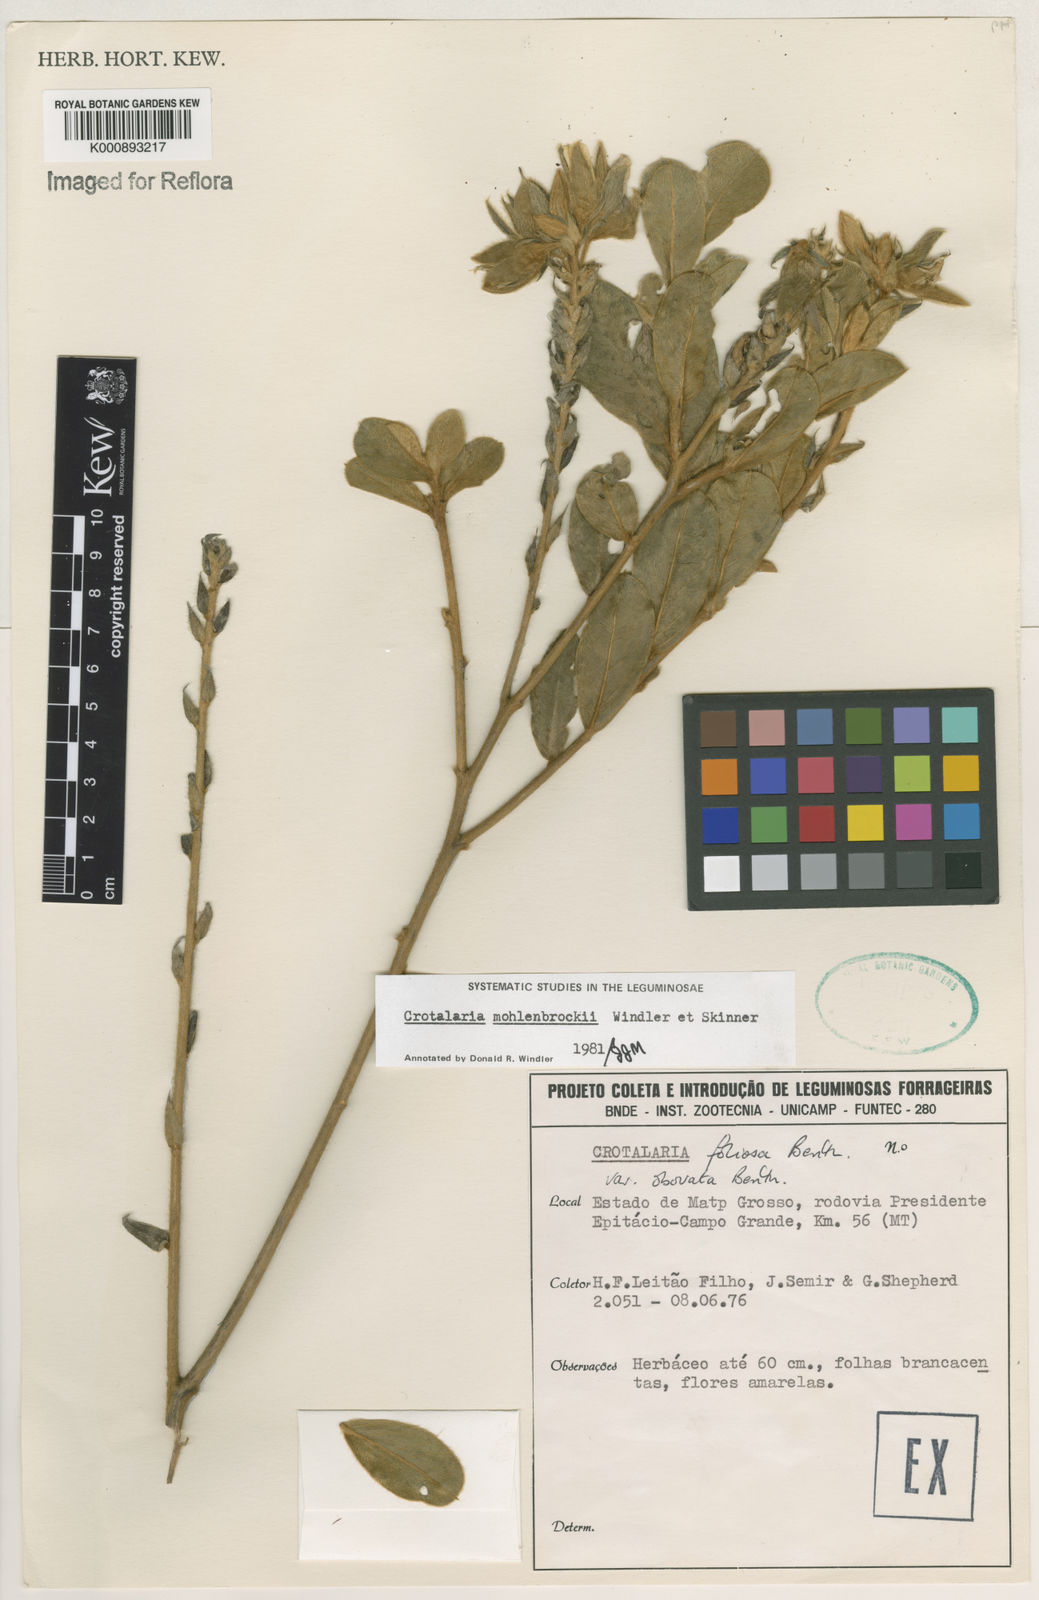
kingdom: Plantae
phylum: Tracheophyta
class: Magnoliopsida
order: Fabales
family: Fabaceae
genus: Crotalaria
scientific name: Crotalaria martiana
